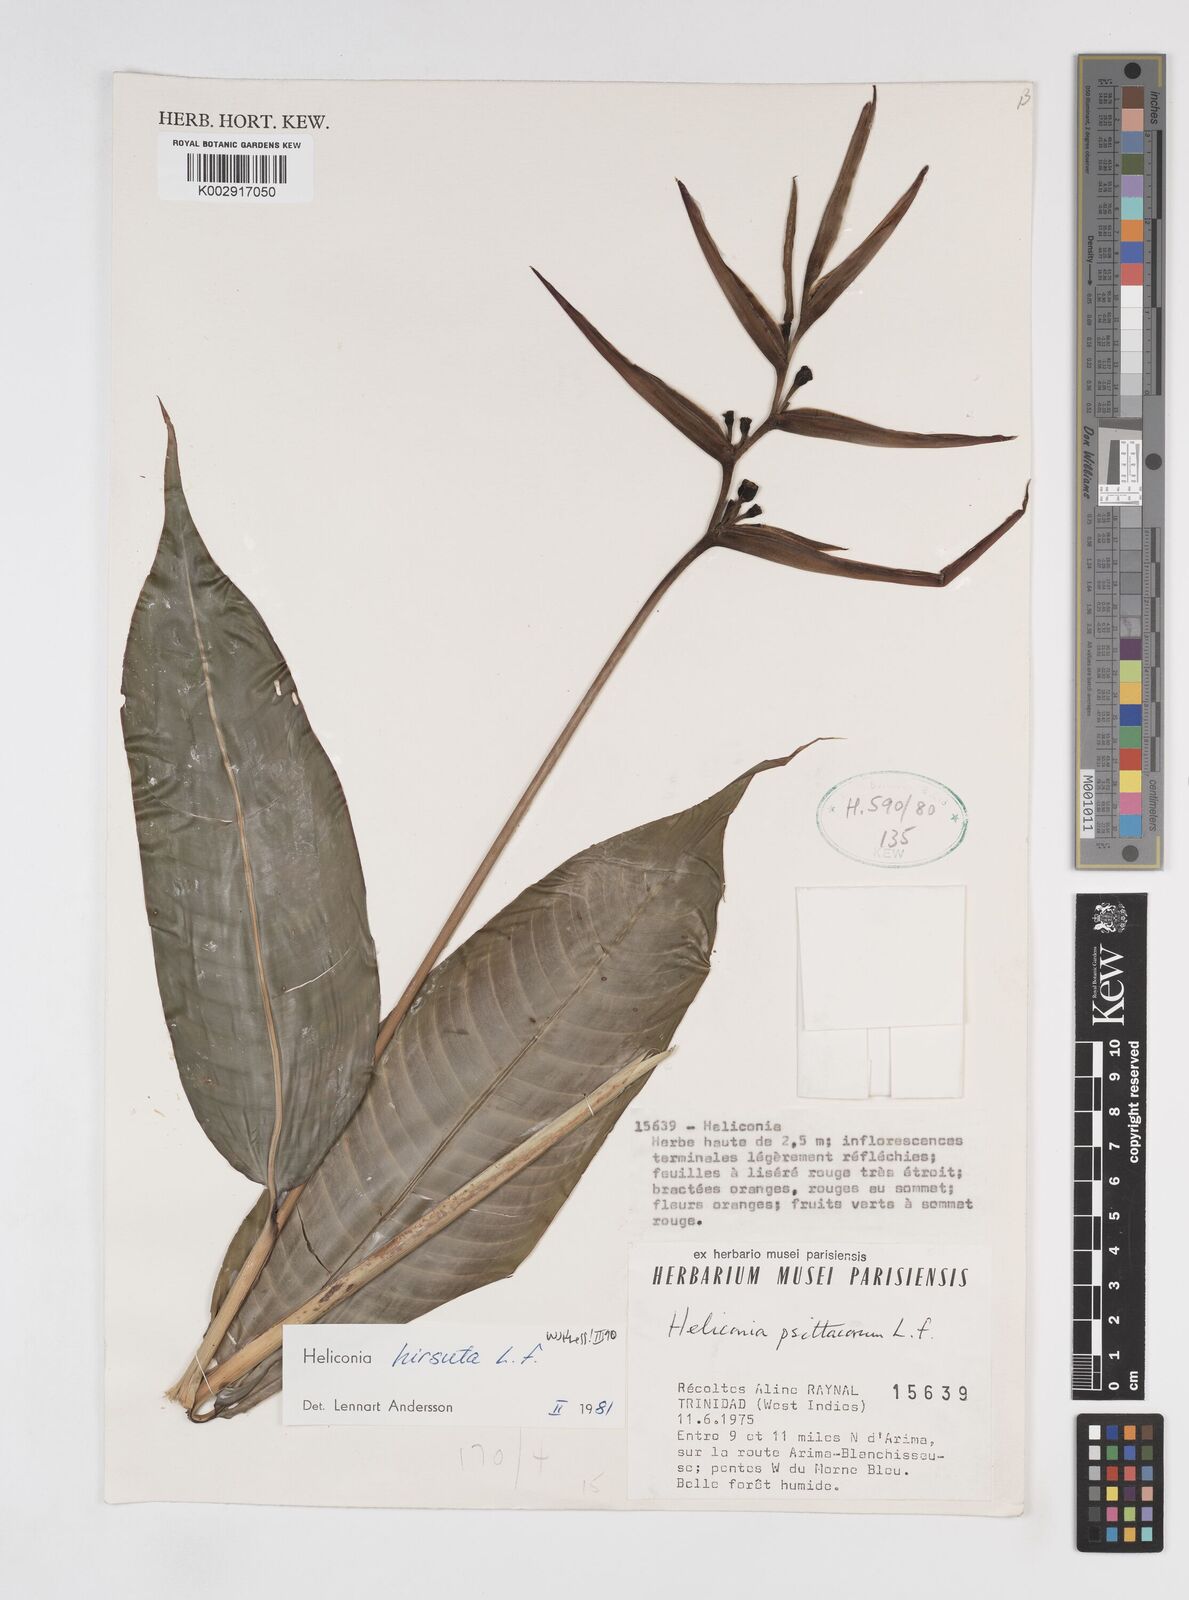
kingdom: Plantae
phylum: Tracheophyta
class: Liliopsida
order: Zingiberales
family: Heliconiaceae
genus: Heliconia
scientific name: Heliconia hirsuta
